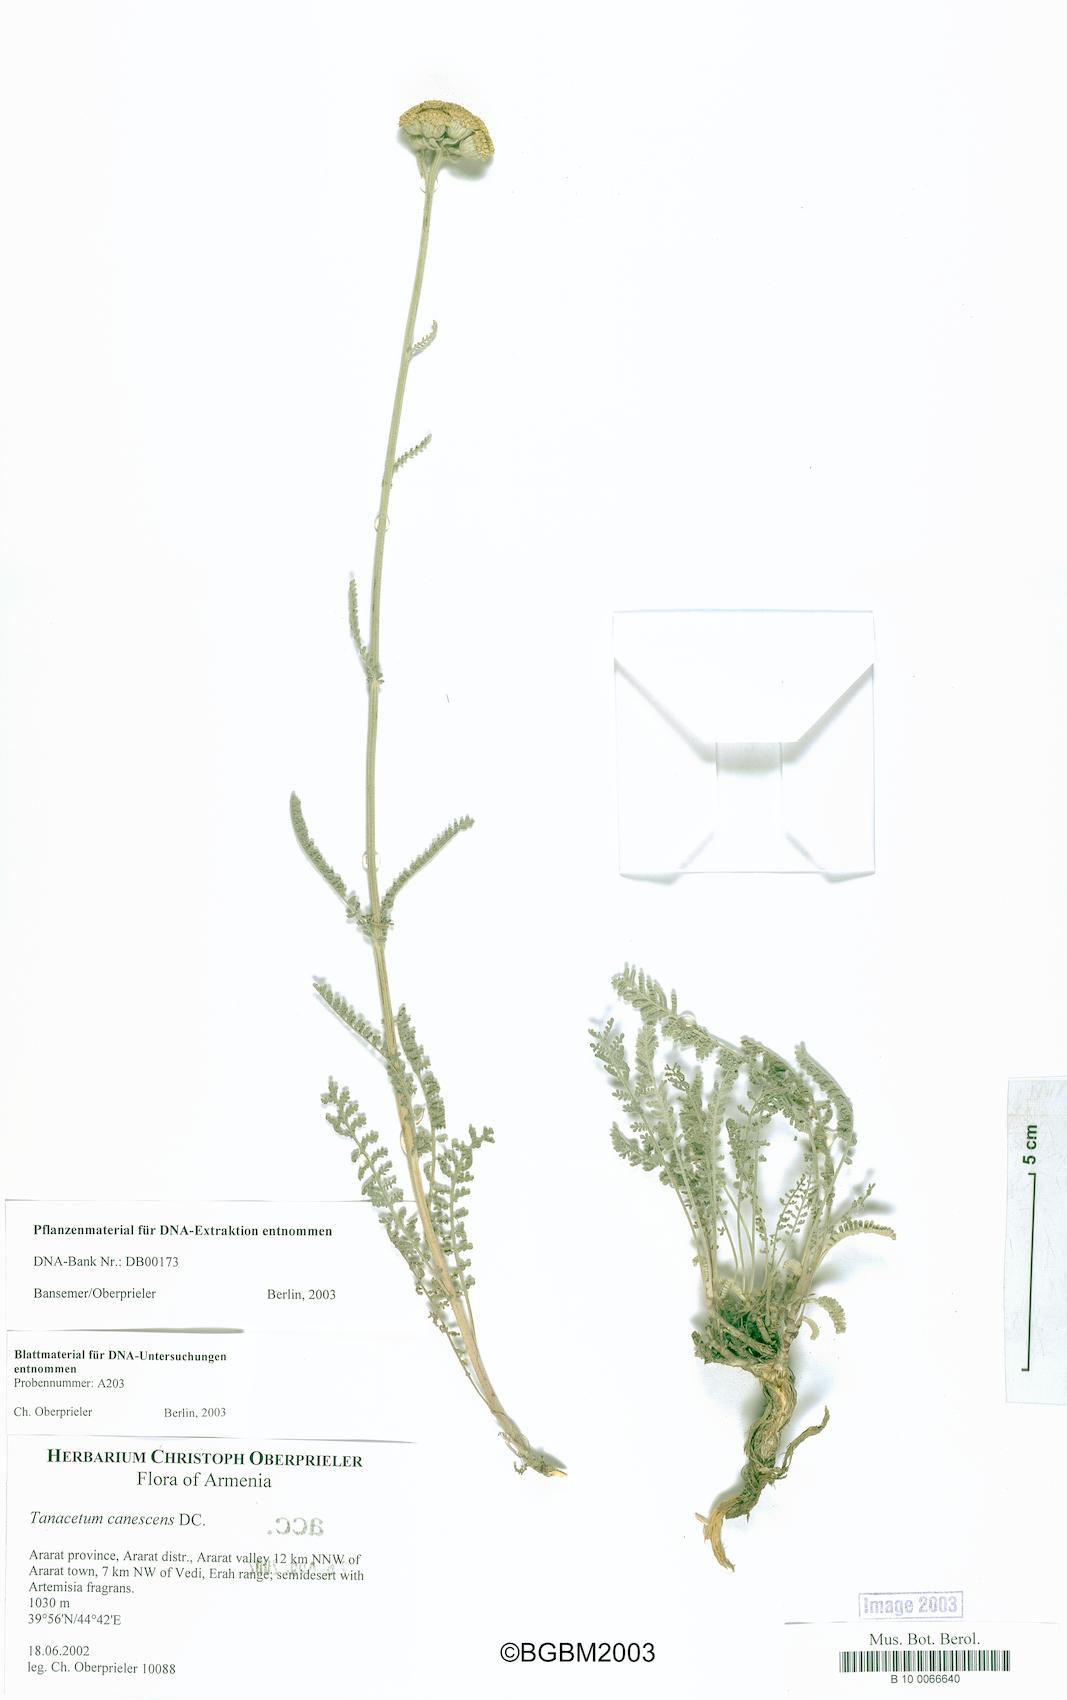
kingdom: Plantae
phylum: Tracheophyta
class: Magnoliopsida
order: Asterales
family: Asteraceae
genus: Tanacetum
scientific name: Tanacetum canescens
